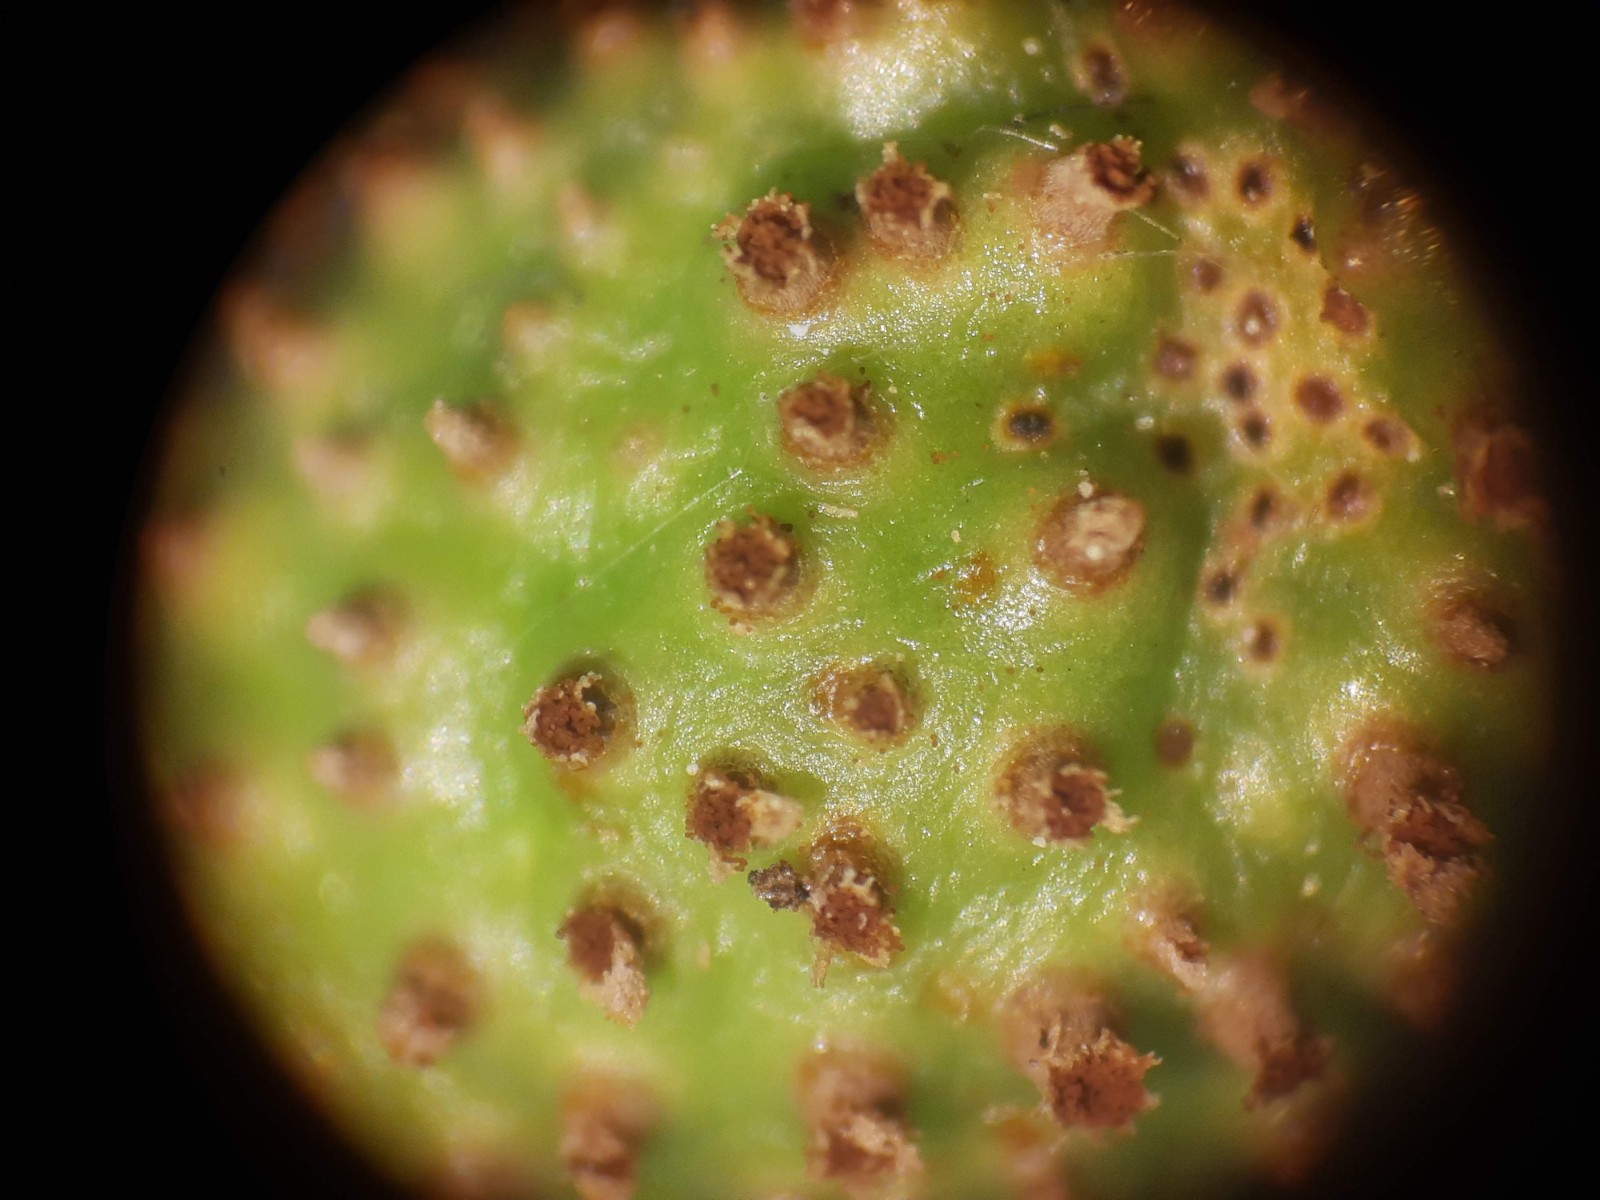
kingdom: Fungi
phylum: Basidiomycota
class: Pucciniomycetes
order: Pucciniales
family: Gymnosporangiaceae
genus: Gymnosporangium
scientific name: Gymnosporangium clavariiforme
